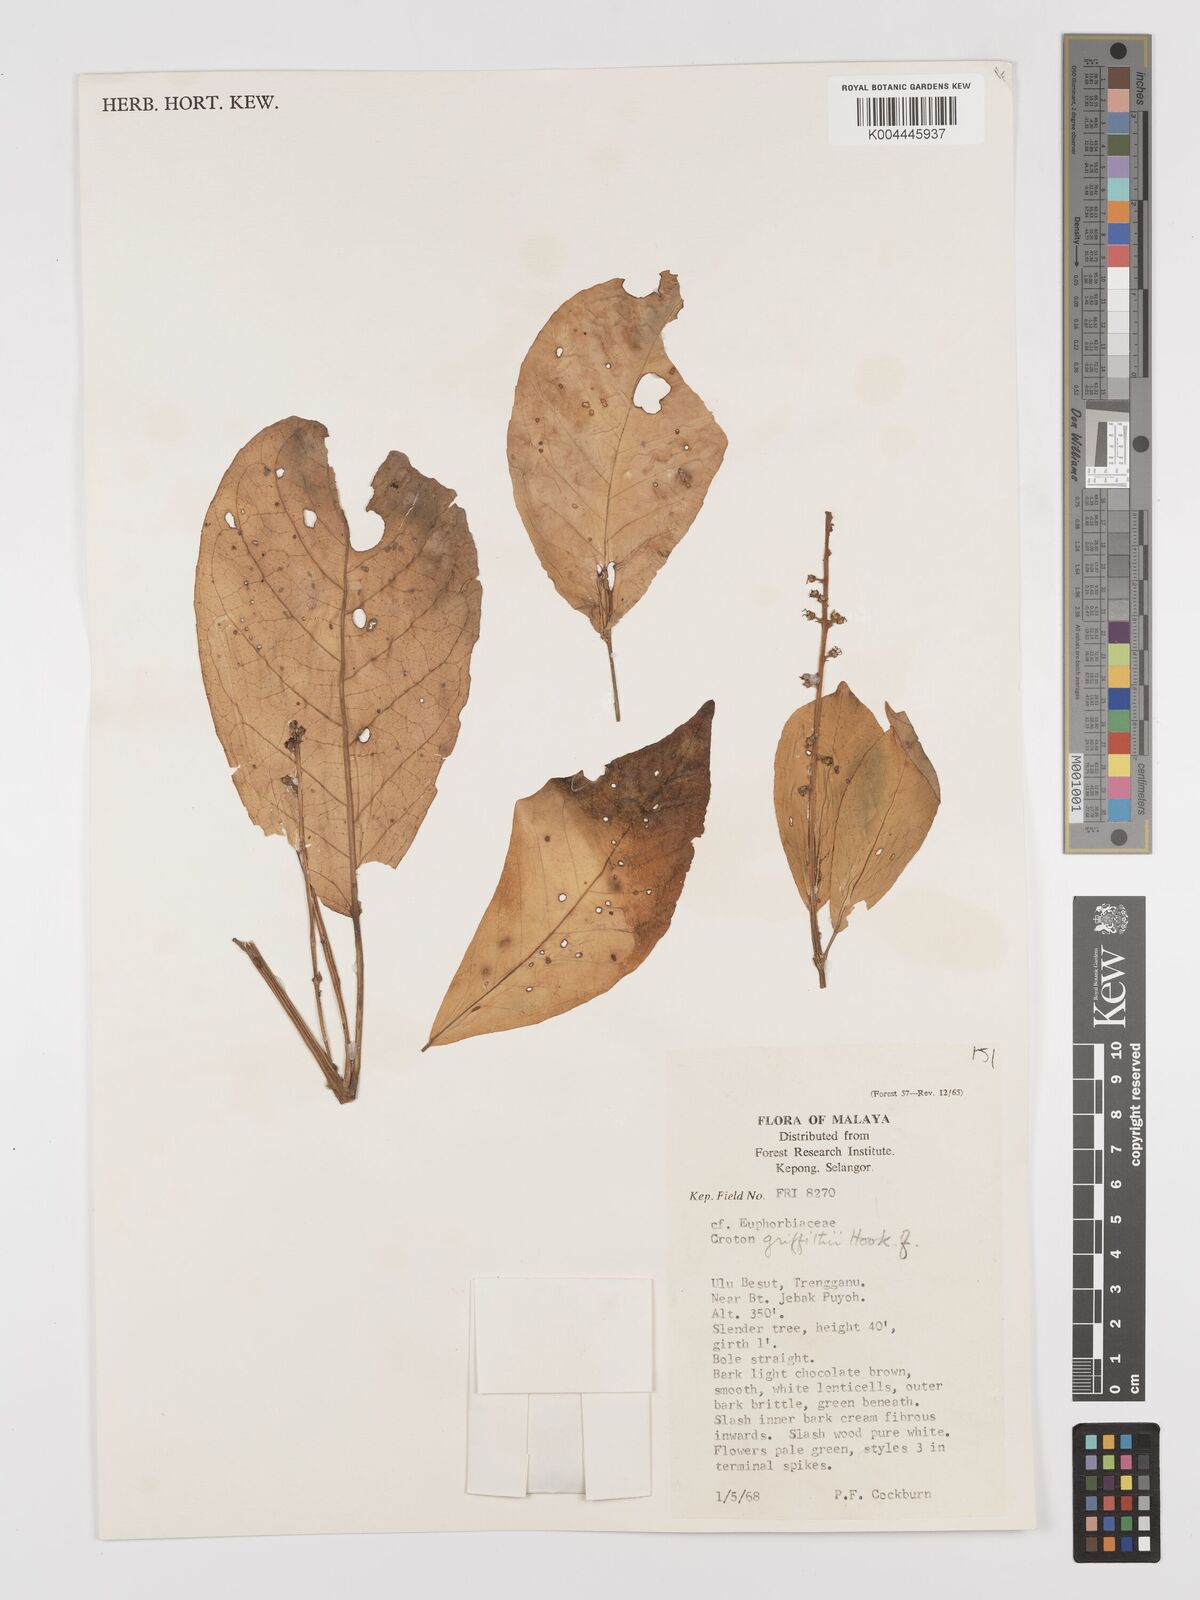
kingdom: Plantae
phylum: Tracheophyta
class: Magnoliopsida
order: Malpighiales
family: Euphorbiaceae
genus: Croton
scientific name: Croton griffithii
